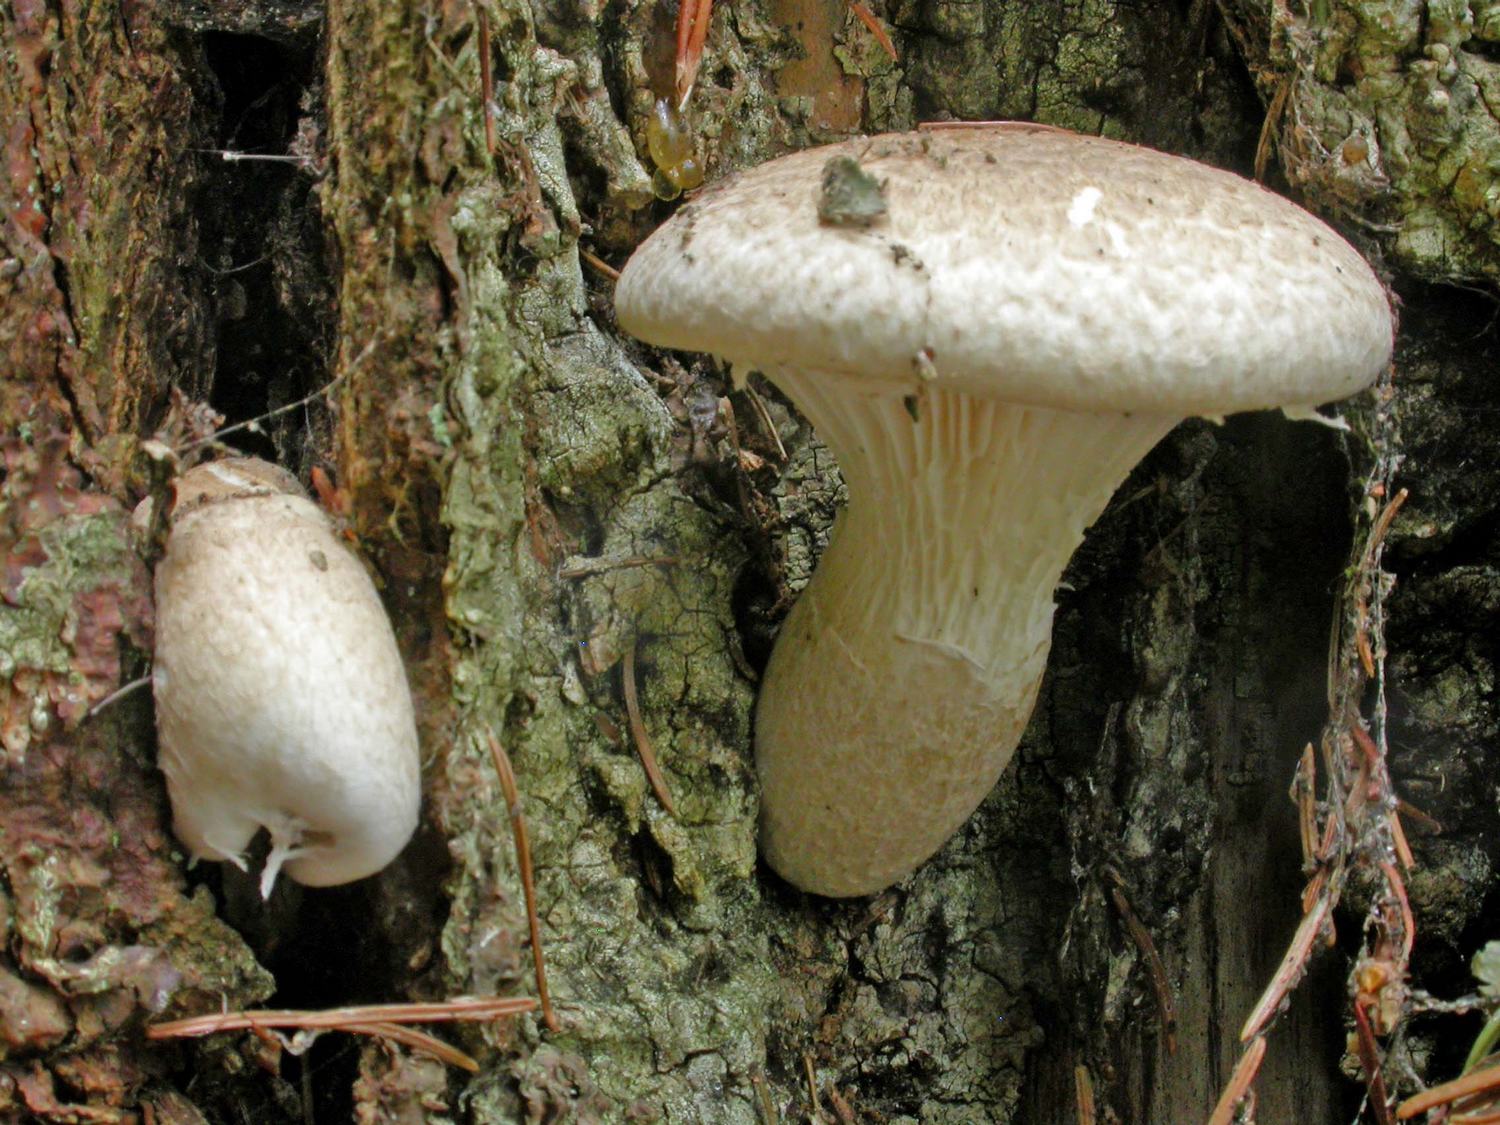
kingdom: Fungi
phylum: Basidiomycota
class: Agaricomycetes
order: Agaricales
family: Pleurotaceae
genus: Pleurotus
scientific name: Pleurotus dryinus
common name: korkagtig østershat
